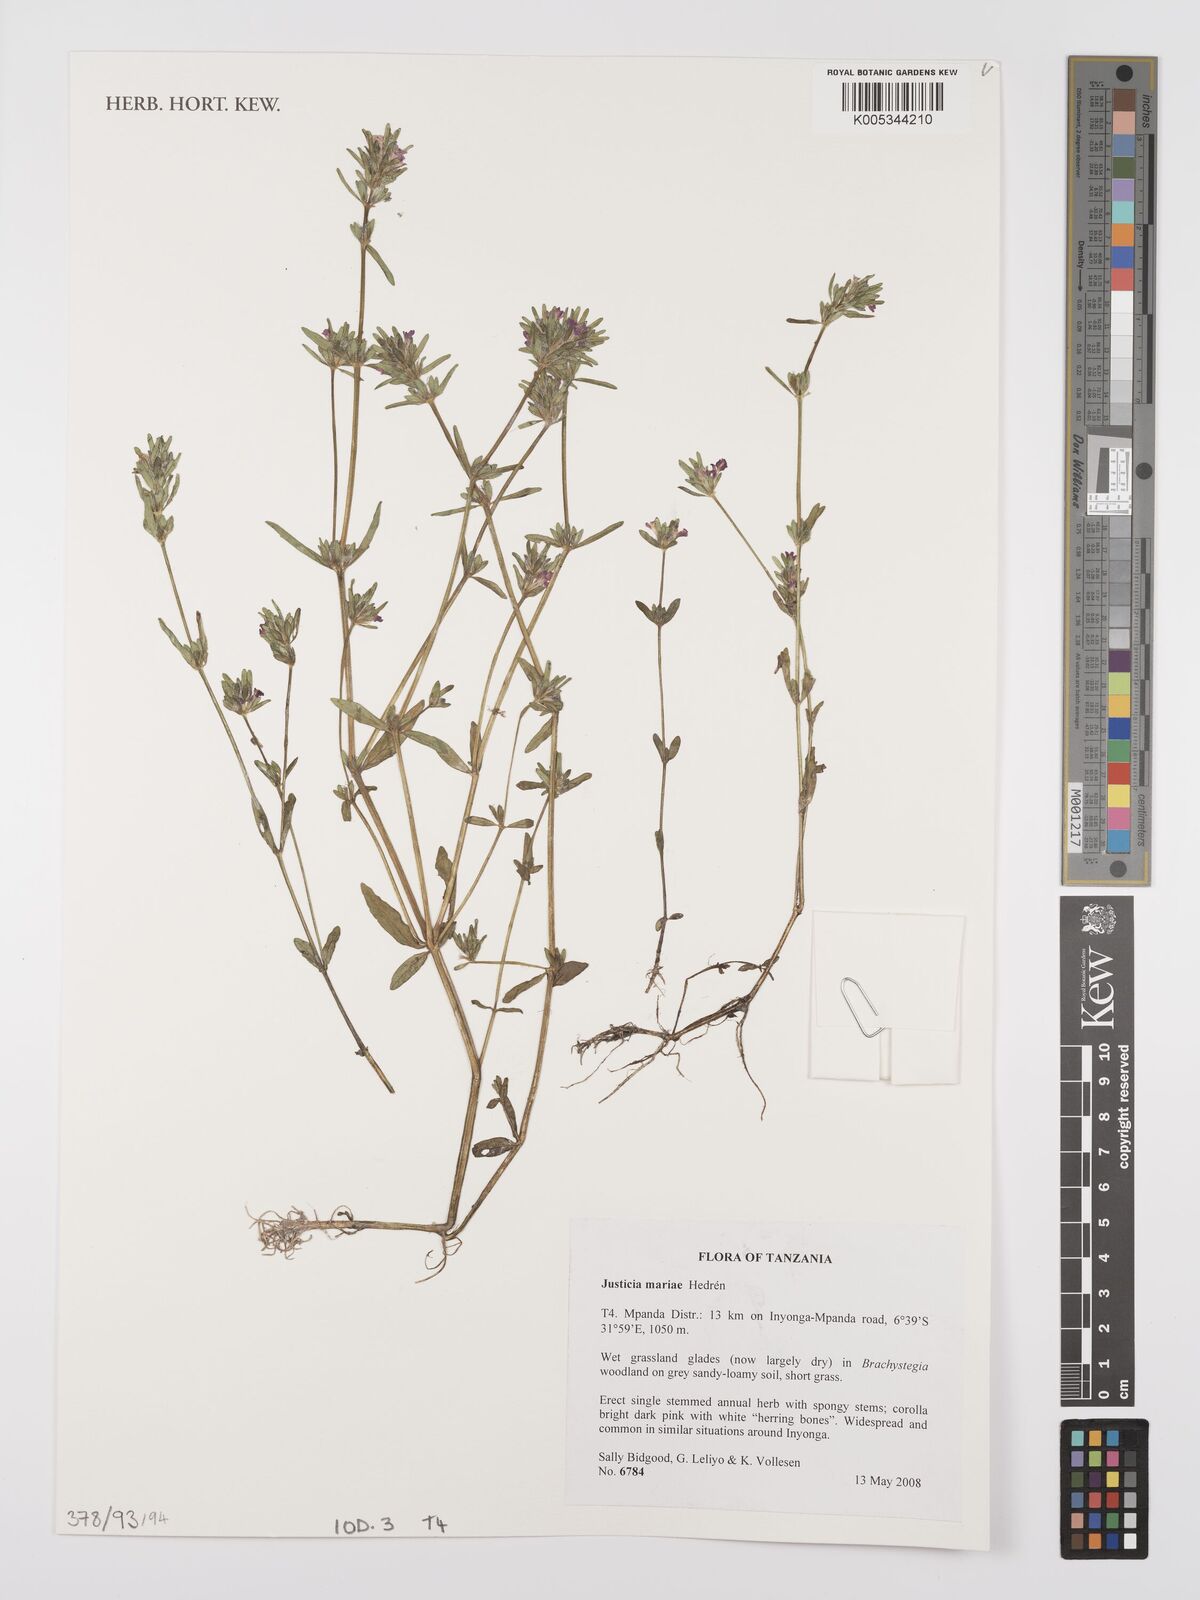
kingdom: Plantae
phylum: Tracheophyta
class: Magnoliopsida
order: Lamiales
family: Acanthaceae
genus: Justicia
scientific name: Justicia mariae
